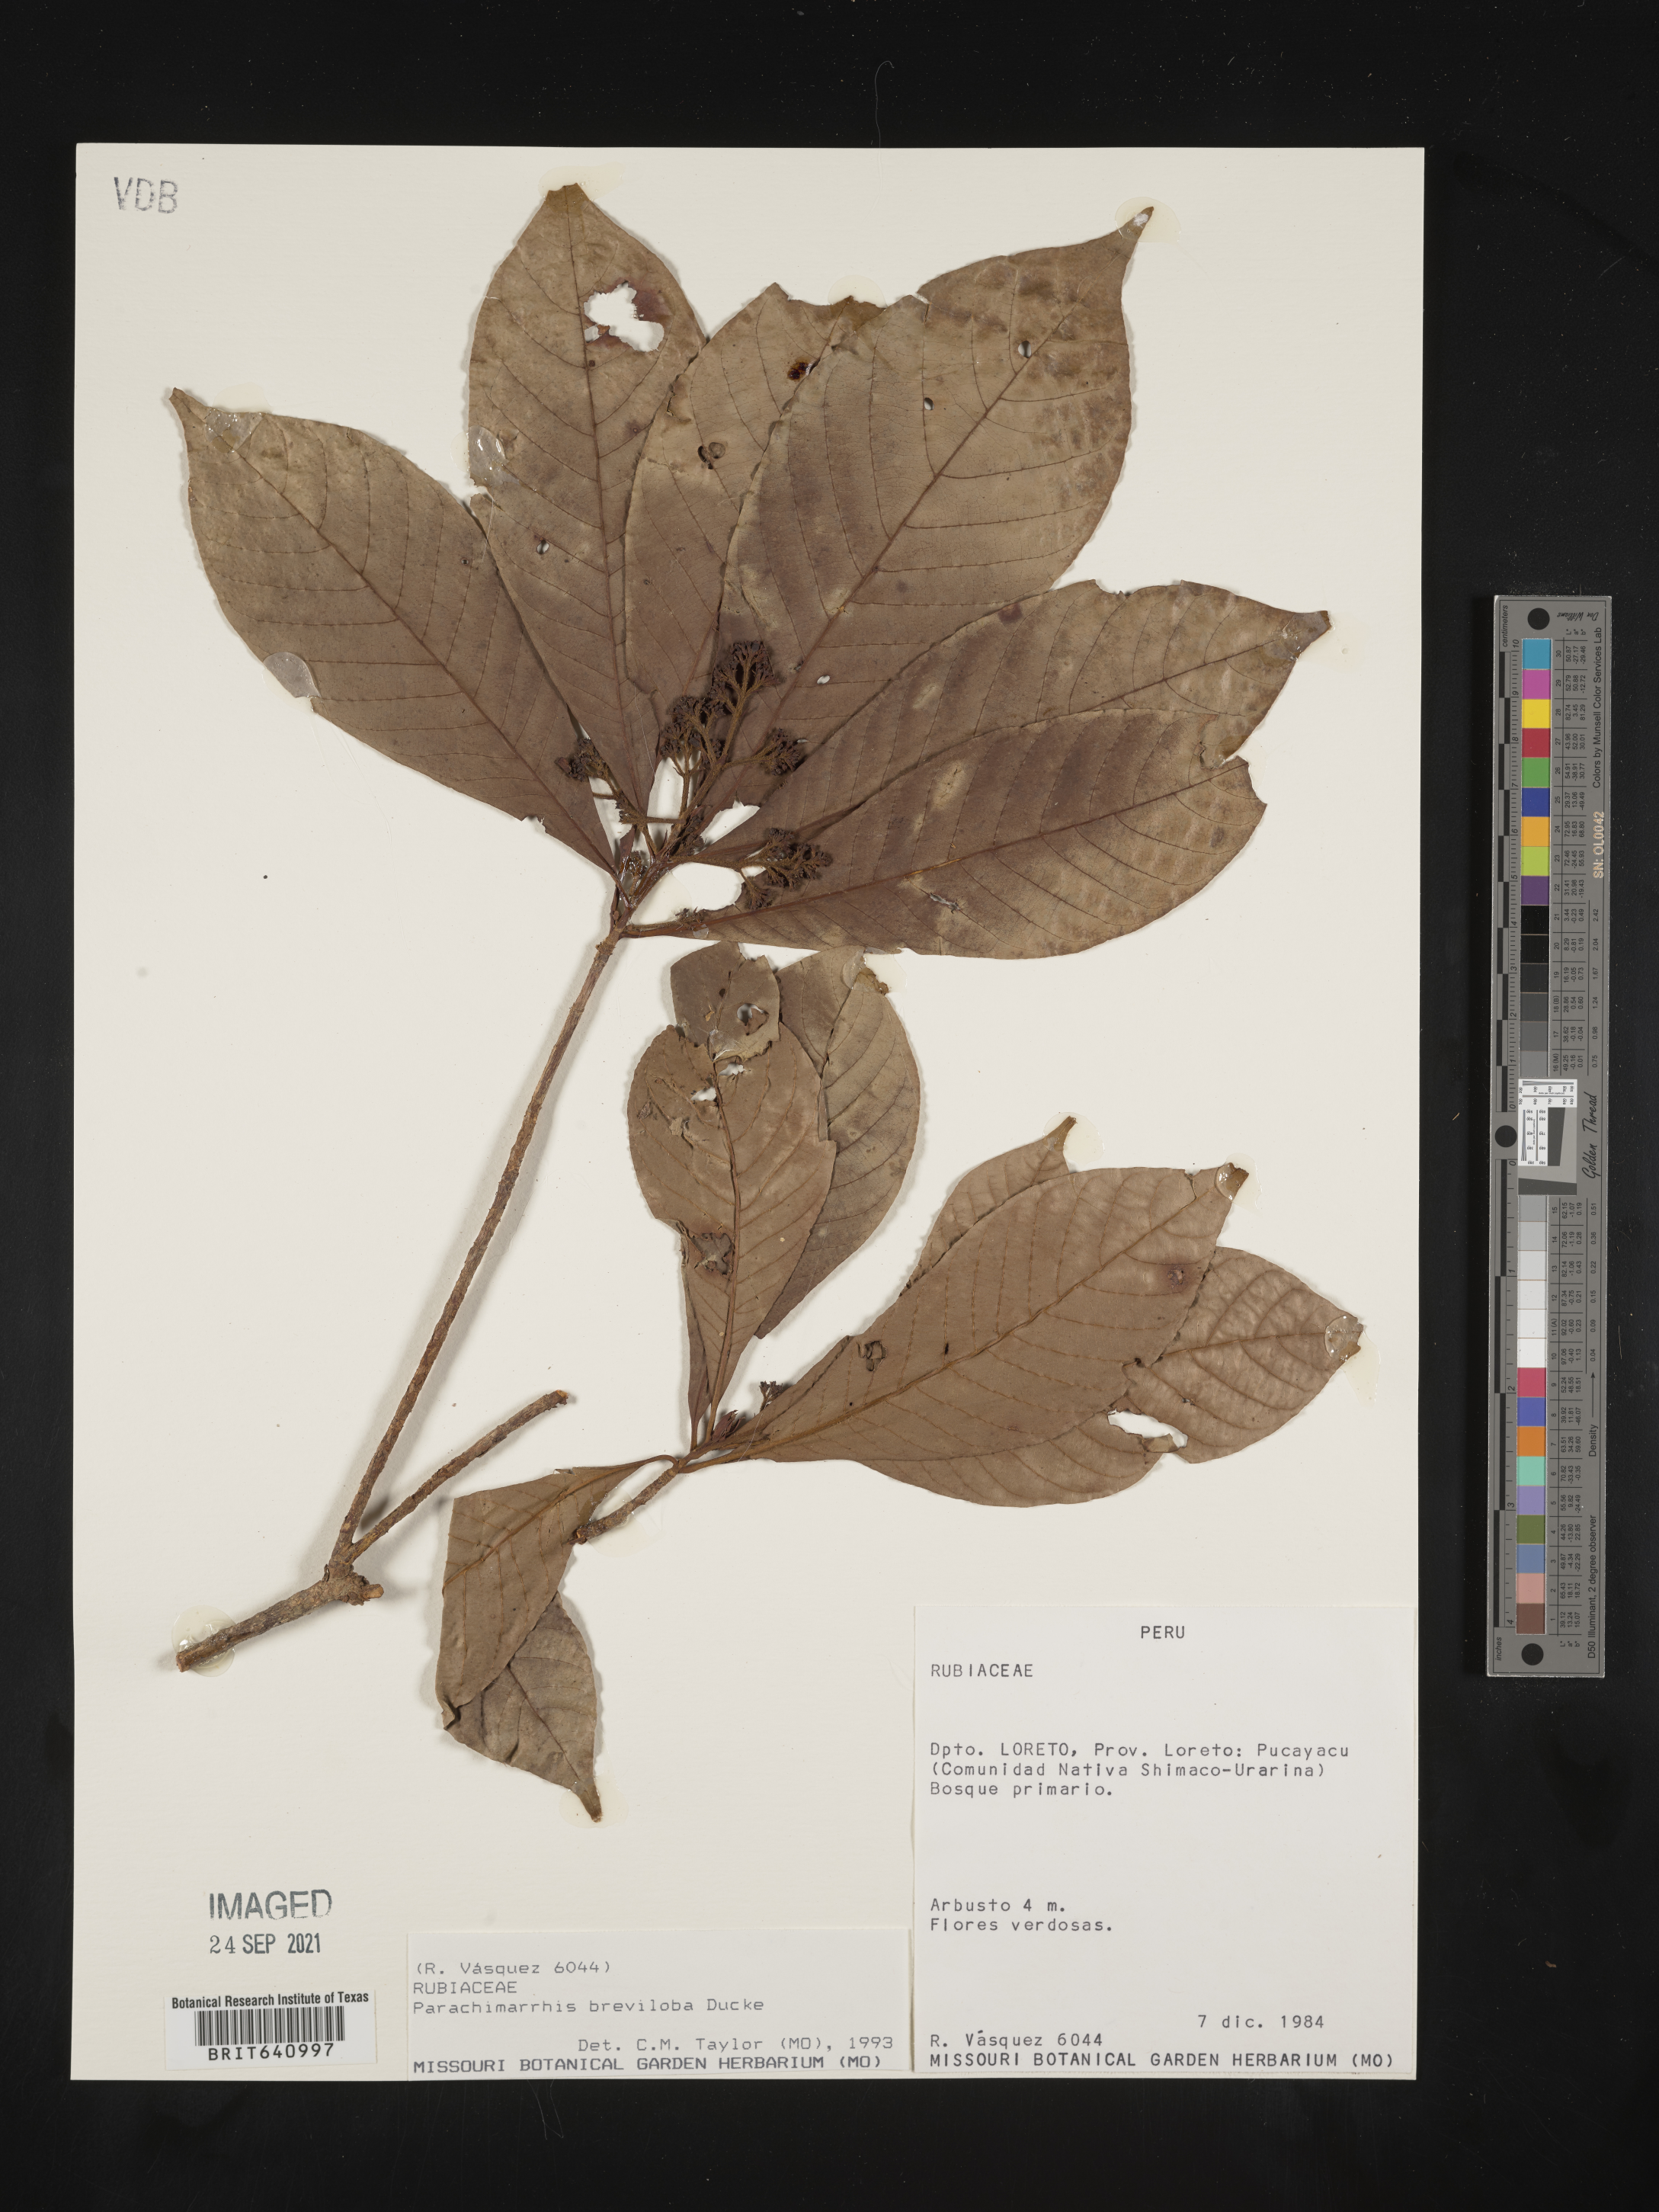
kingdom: Plantae
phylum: Tracheophyta
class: Magnoliopsida
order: Gentianales
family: Rubiaceae
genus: Parachimarrhis
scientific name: Parachimarrhis
